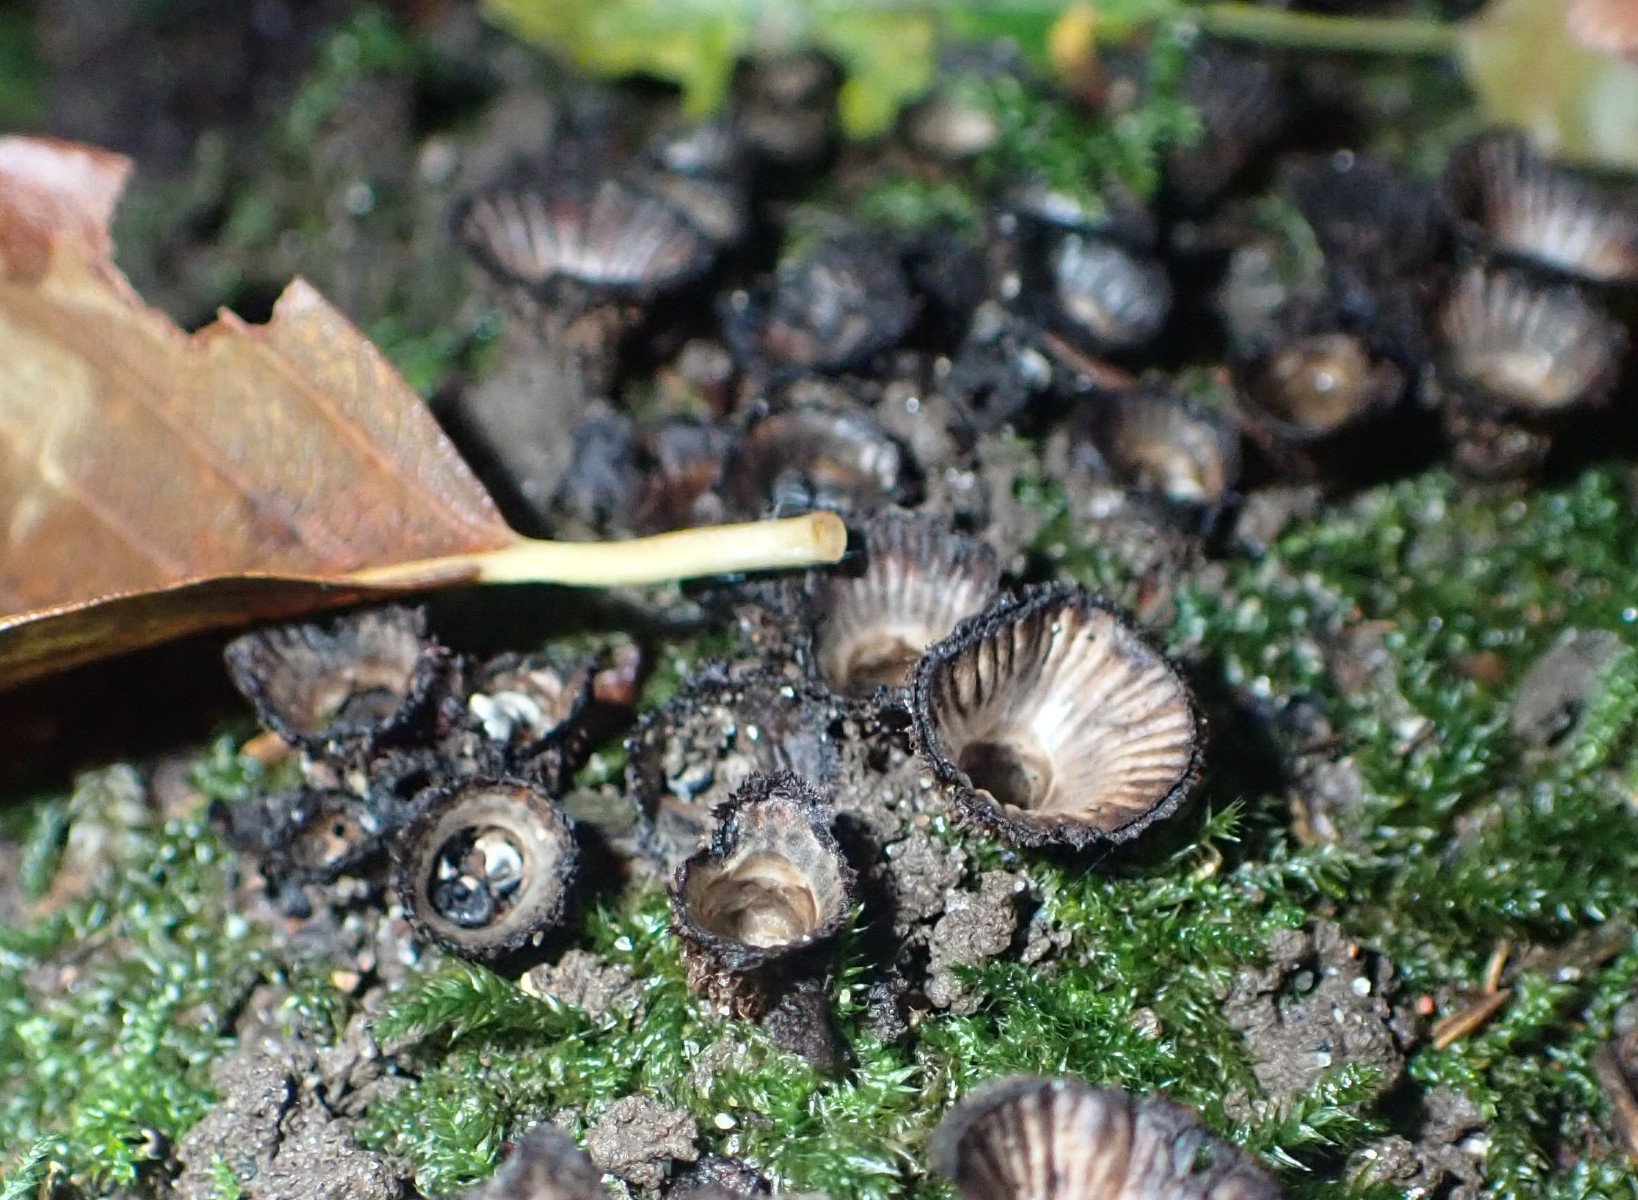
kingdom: Fungi
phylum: Basidiomycota
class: Agaricomycetes
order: Agaricales
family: Agaricaceae
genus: Cyathus
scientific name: Cyathus striatus
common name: stribet redesvamp
